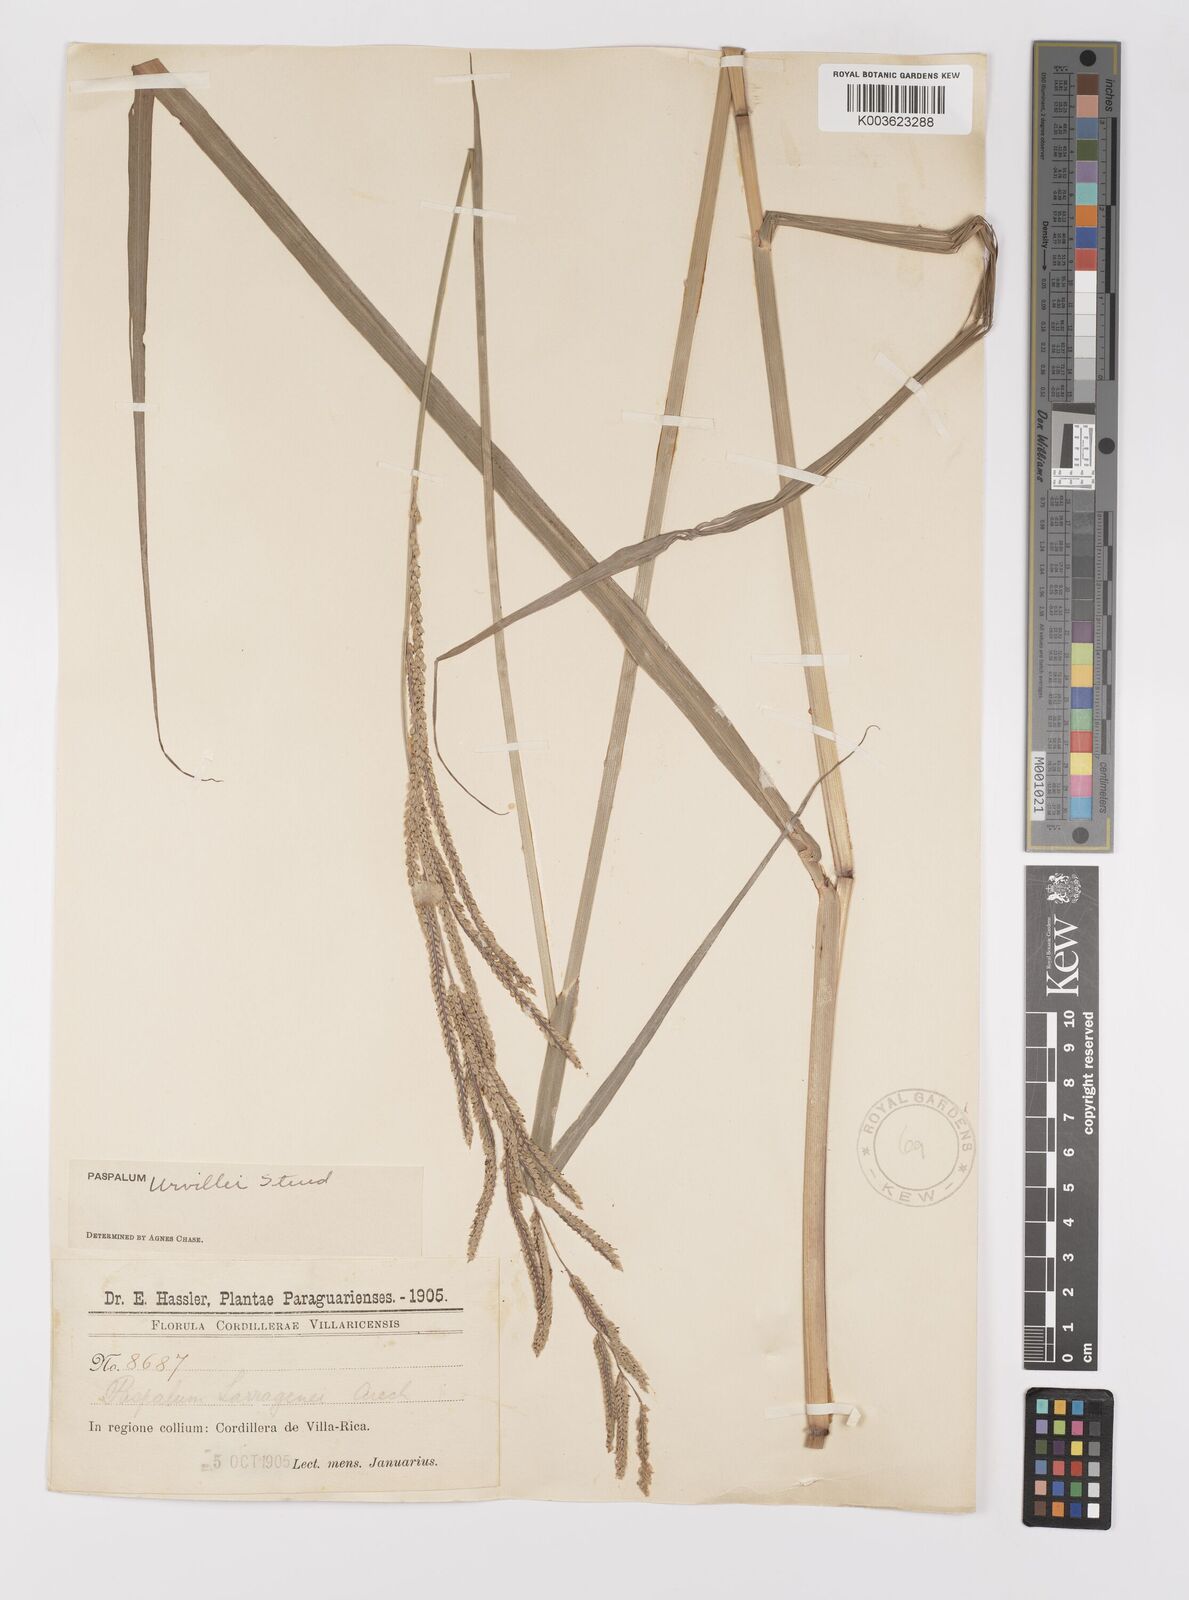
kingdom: Plantae
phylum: Tracheophyta
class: Liliopsida
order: Poales
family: Poaceae
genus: Paspalum
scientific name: Paspalum urvillei
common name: Vasey's grass
